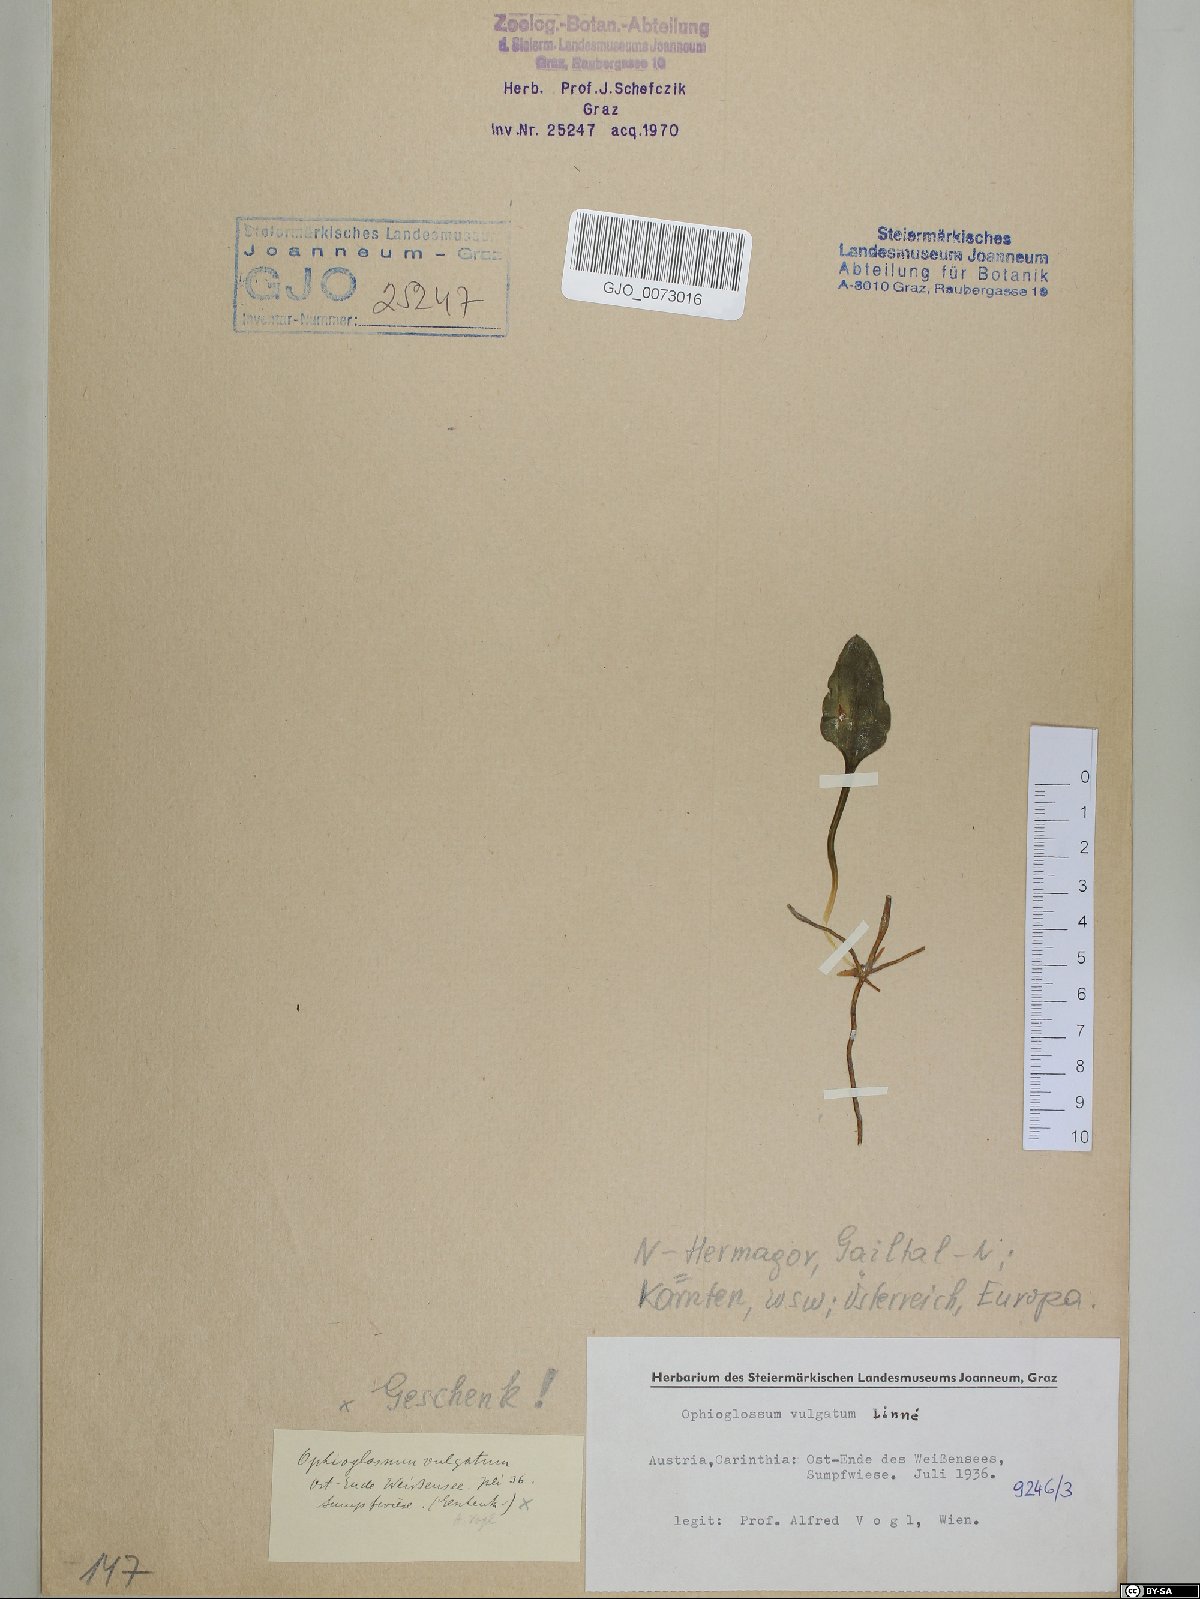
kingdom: Plantae
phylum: Tracheophyta
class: Polypodiopsida
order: Ophioglossales
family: Ophioglossaceae
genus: Ophioglossum
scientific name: Ophioglossum vulgatum
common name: Adder's-tongue
